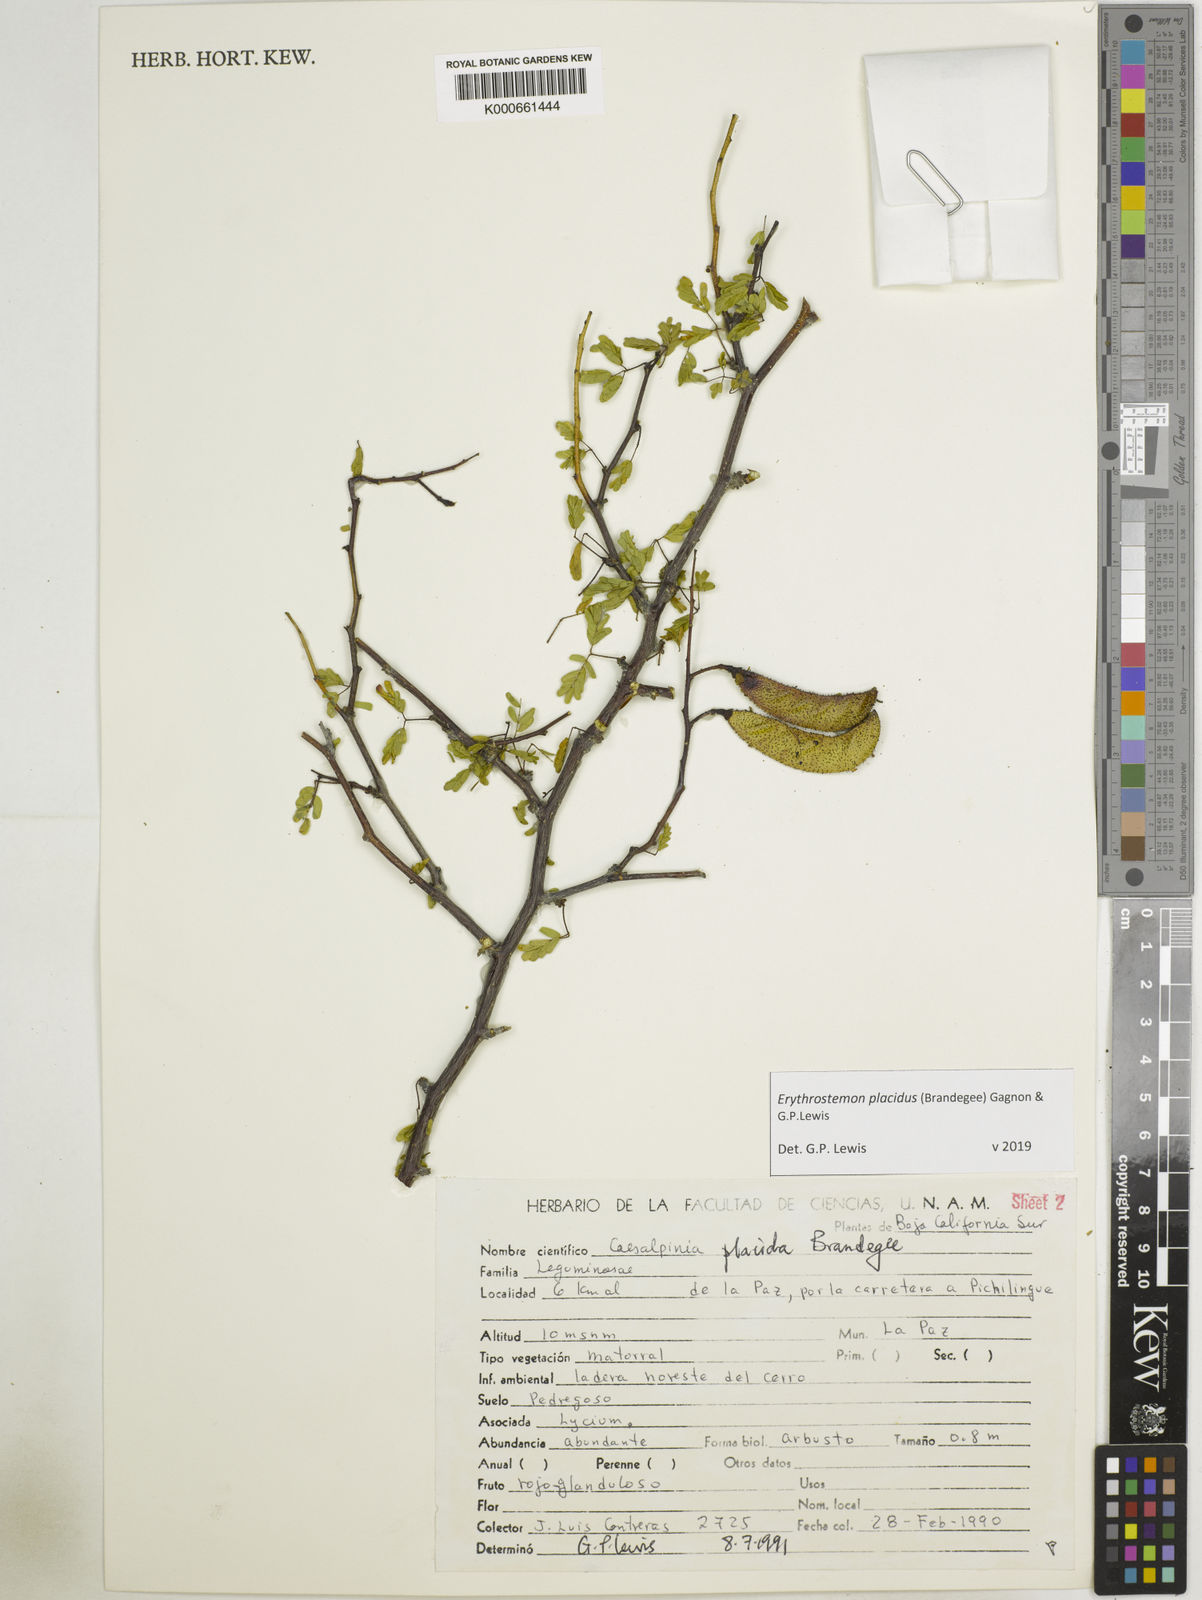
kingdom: Plantae
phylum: Tracheophyta
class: Magnoliopsida
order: Fabales
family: Fabaceae
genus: Erythrostemon
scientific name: Erythrostemon placidus
